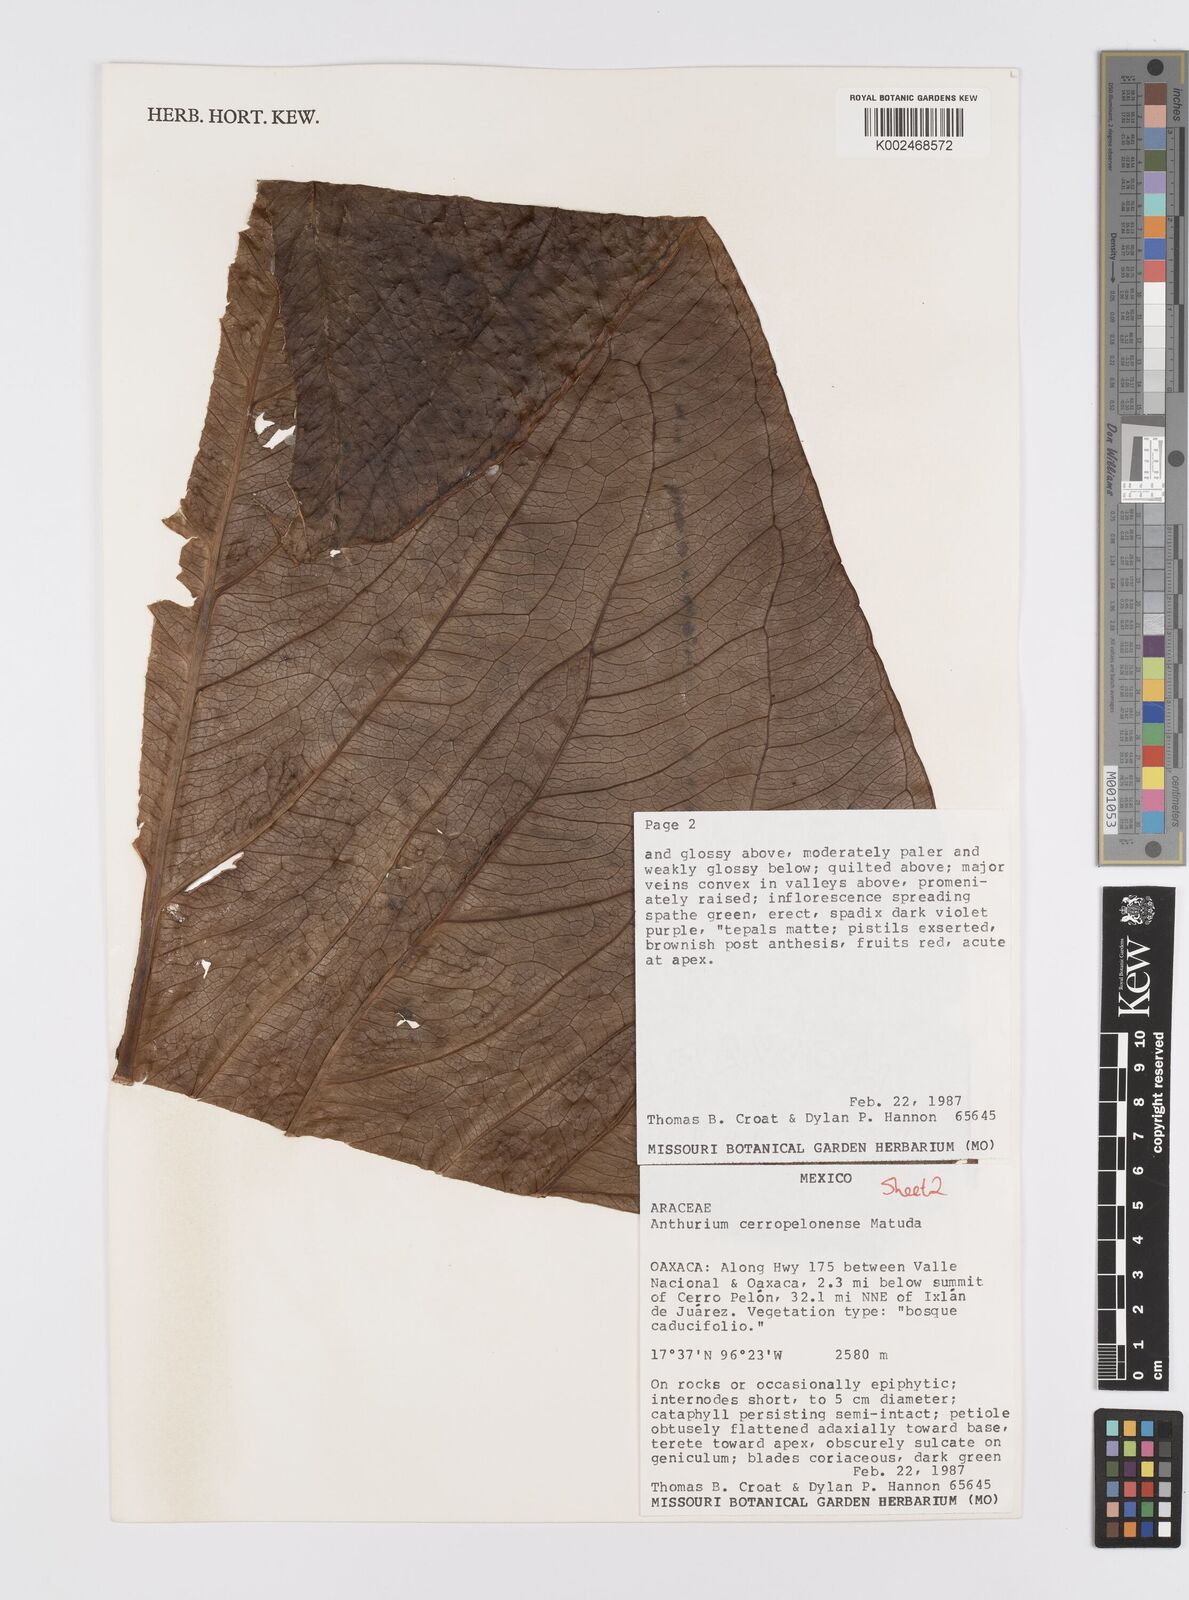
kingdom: Plantae
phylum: Tracheophyta
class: Liliopsida
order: Alismatales
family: Araceae
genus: Anthurium
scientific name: Anthurium cerropelonense
